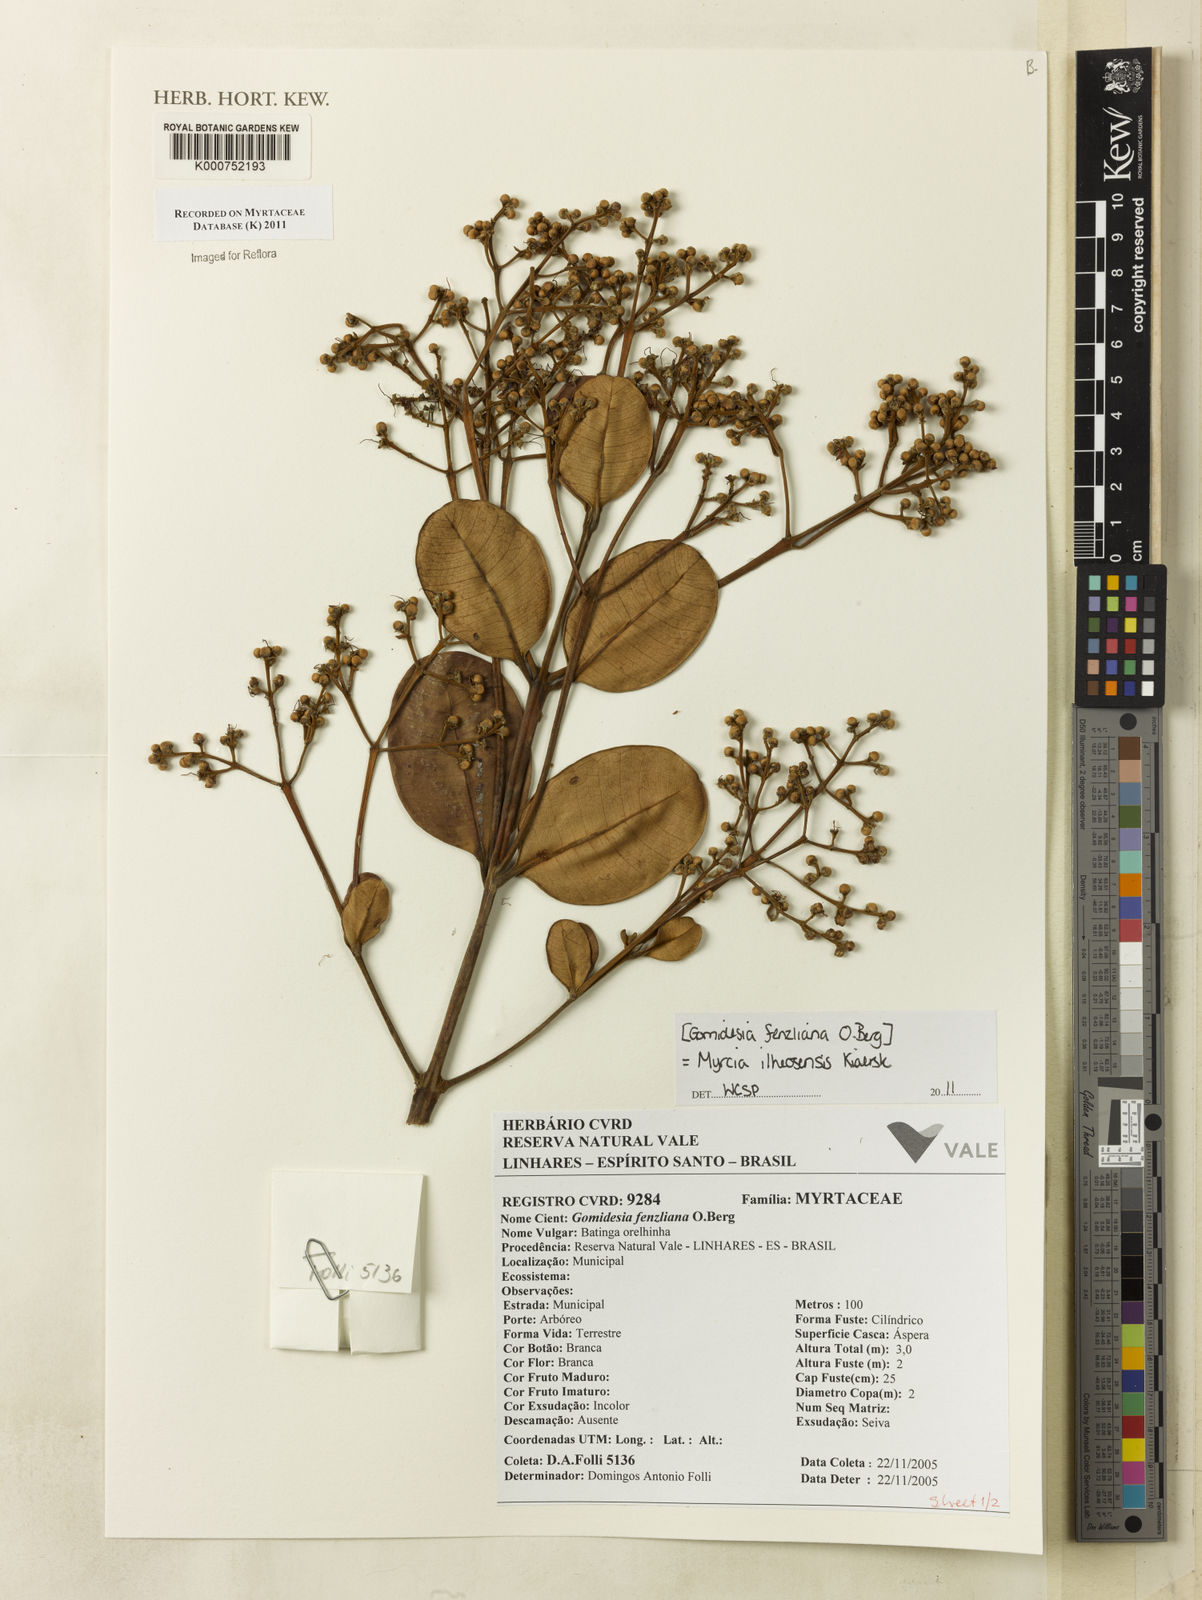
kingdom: Plantae
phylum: Tracheophyta
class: Magnoliopsida
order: Myrtales
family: Myrtaceae
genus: Myrcia
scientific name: Myrcia ilheosensis
